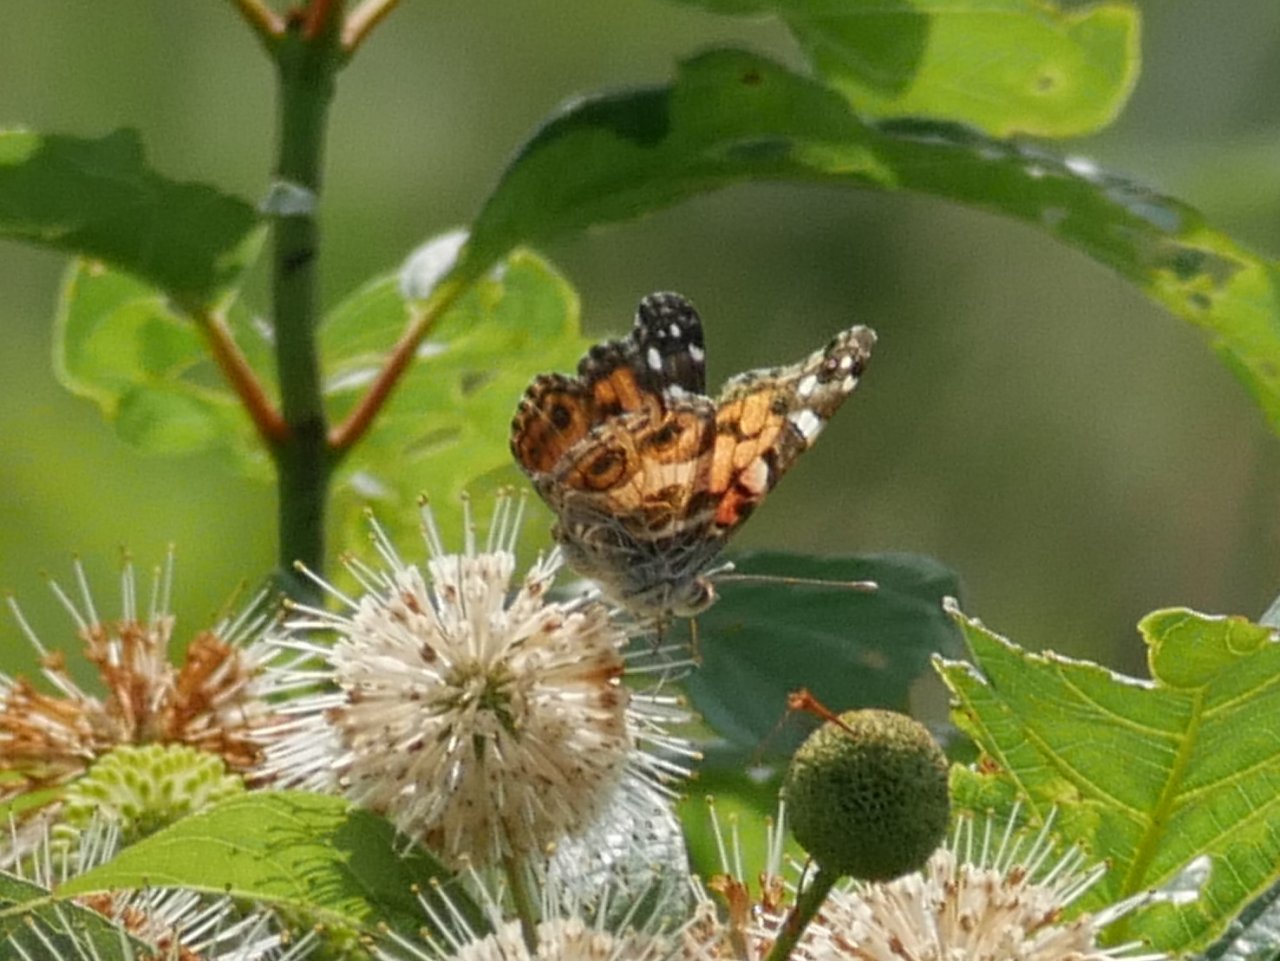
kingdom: Animalia
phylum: Arthropoda
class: Insecta
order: Lepidoptera
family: Nymphalidae
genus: Vanessa
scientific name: Vanessa virginiensis
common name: American Lady
